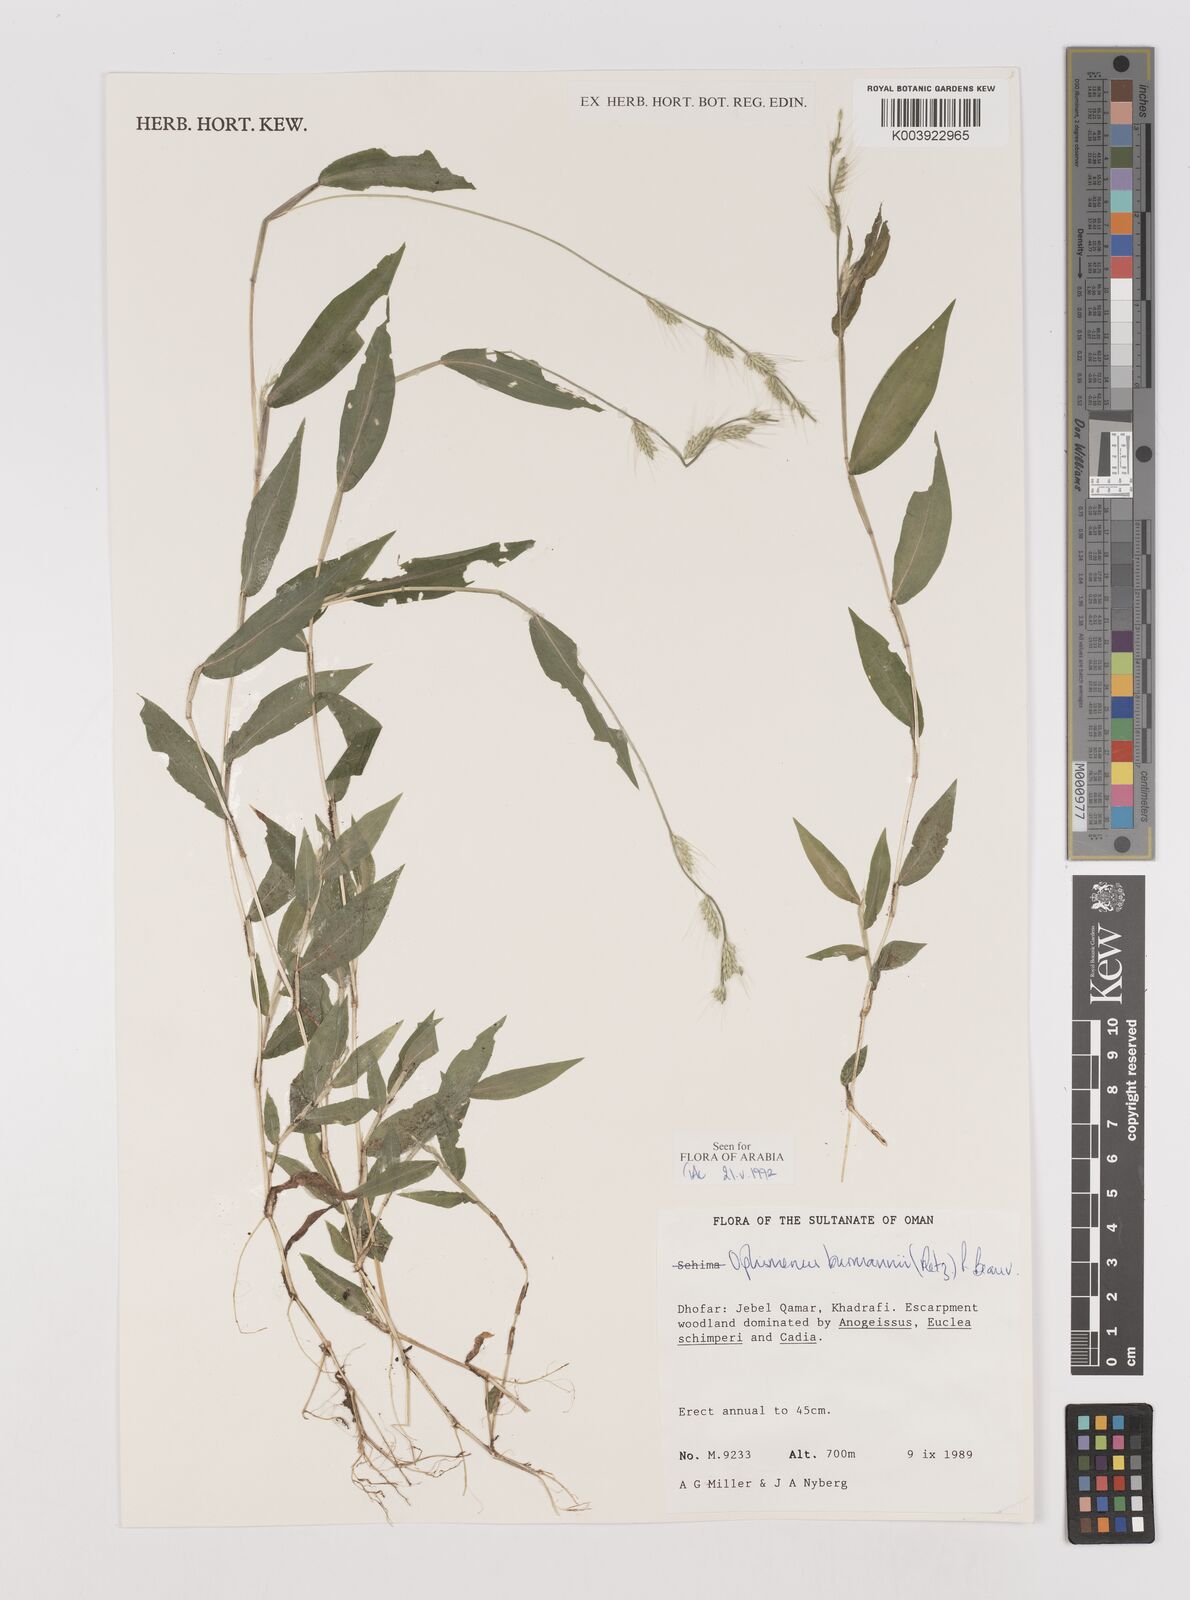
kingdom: Plantae
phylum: Tracheophyta
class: Liliopsida
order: Poales
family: Poaceae
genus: Oplismenus
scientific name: Oplismenus burmanni
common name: Burmann's basketgrass
